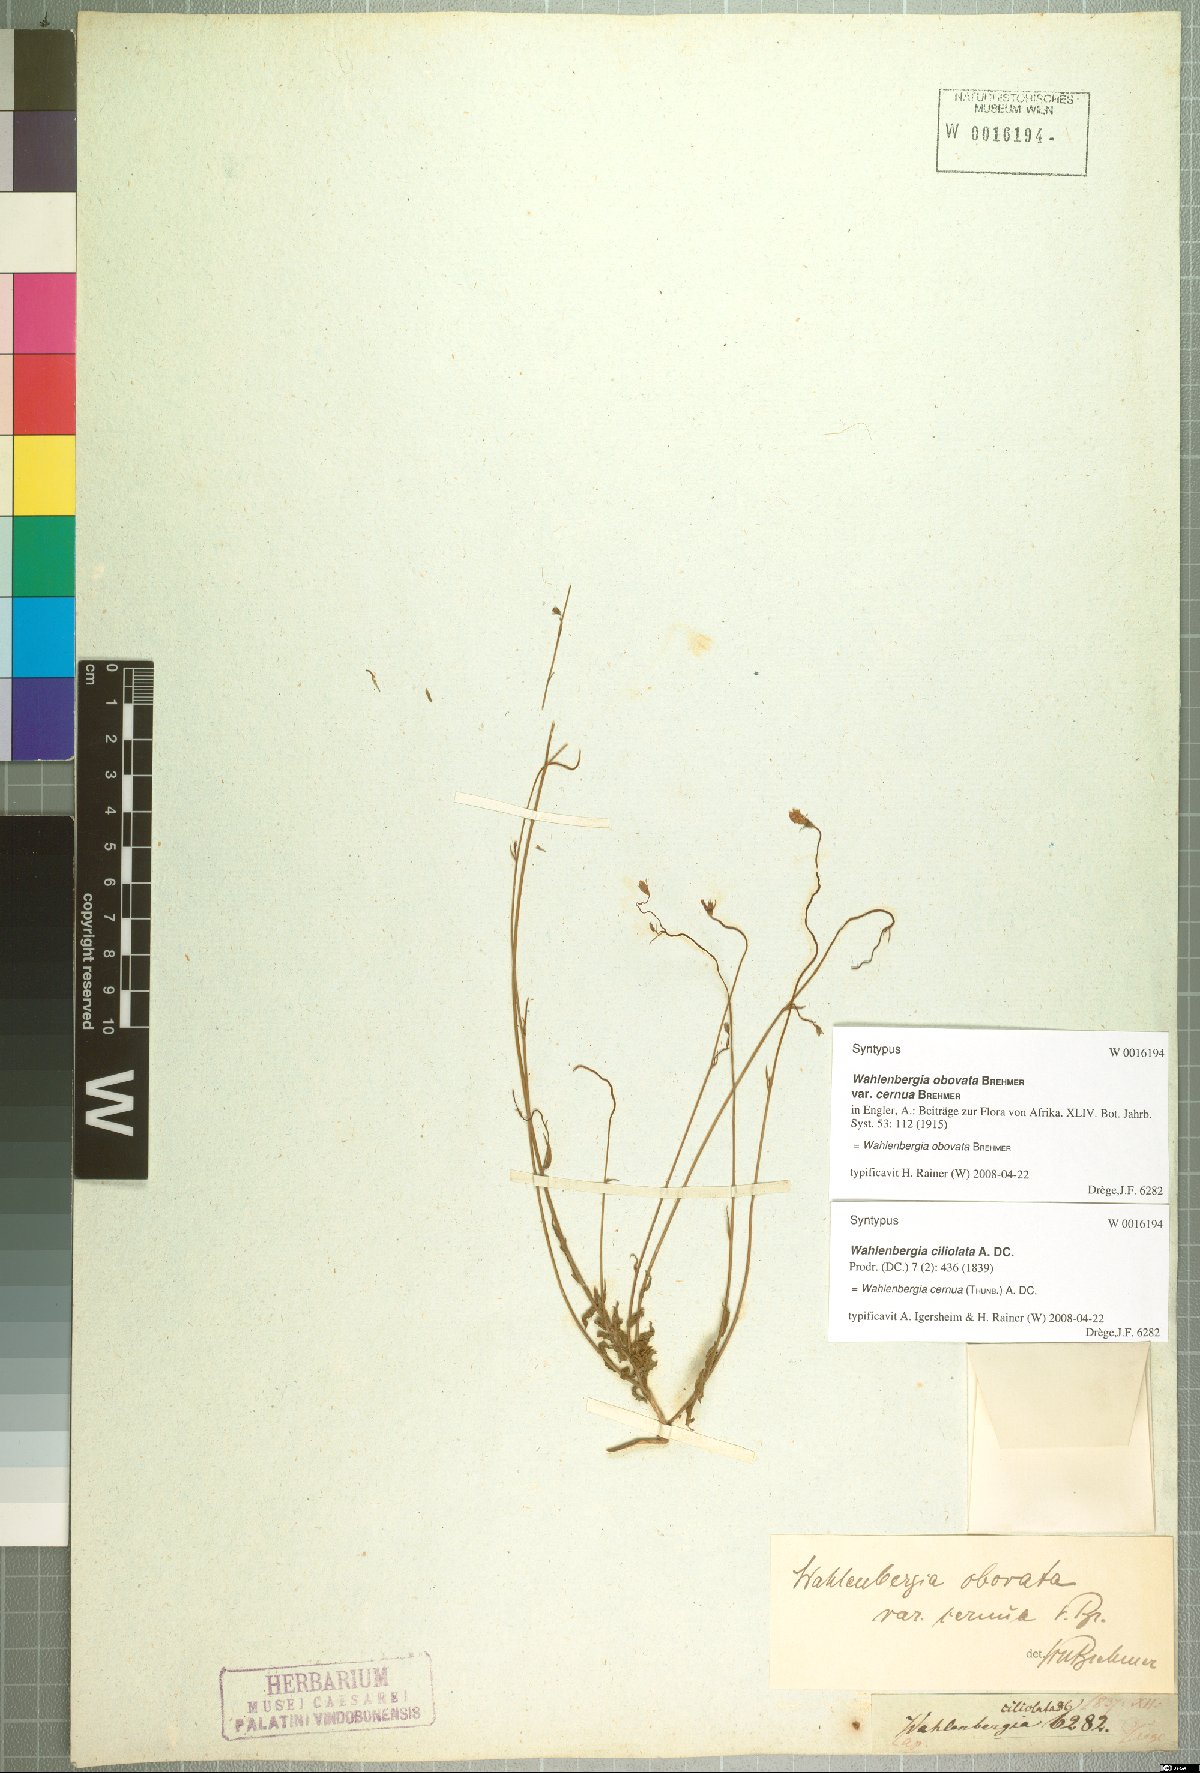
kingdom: Plantae
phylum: Tracheophyta
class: Magnoliopsida
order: Asterales
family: Campanulaceae
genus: Wahlenbergia
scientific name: Wahlenbergia cernua
